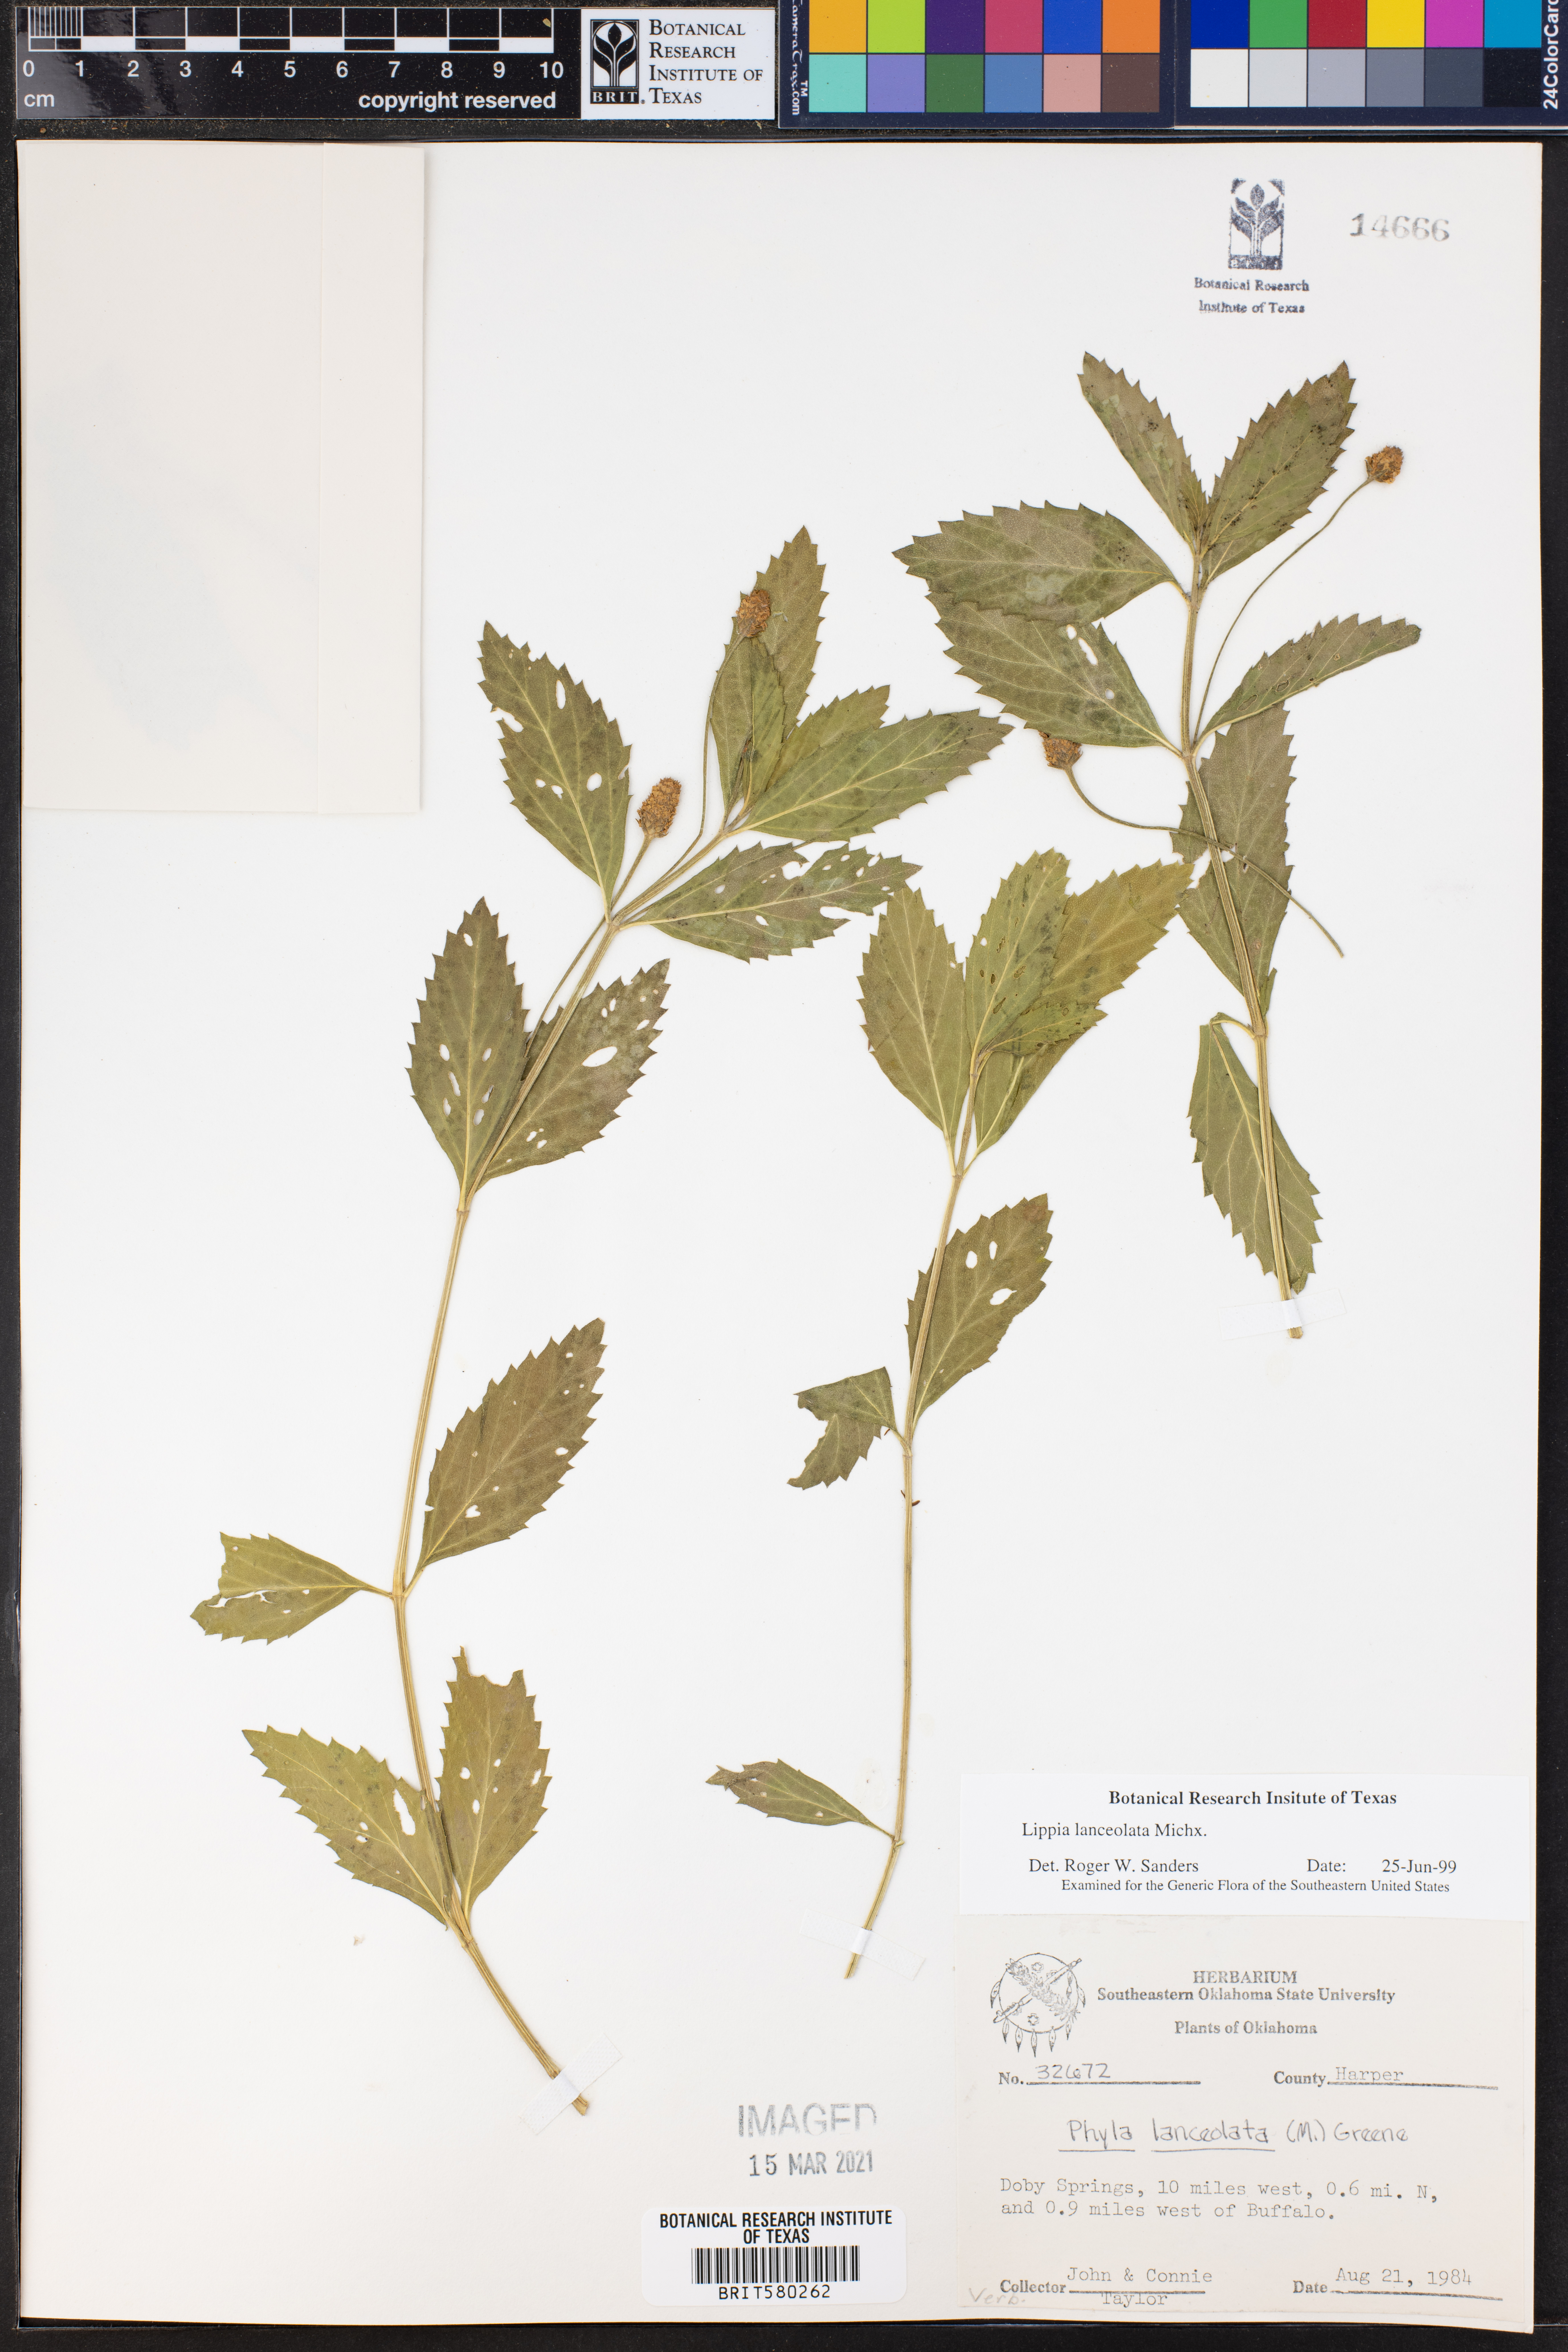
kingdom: Plantae
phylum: Tracheophyta
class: Magnoliopsida
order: Lamiales
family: Verbenaceae
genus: Phyla
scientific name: Phyla lanceolata
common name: Northern fogfruit
